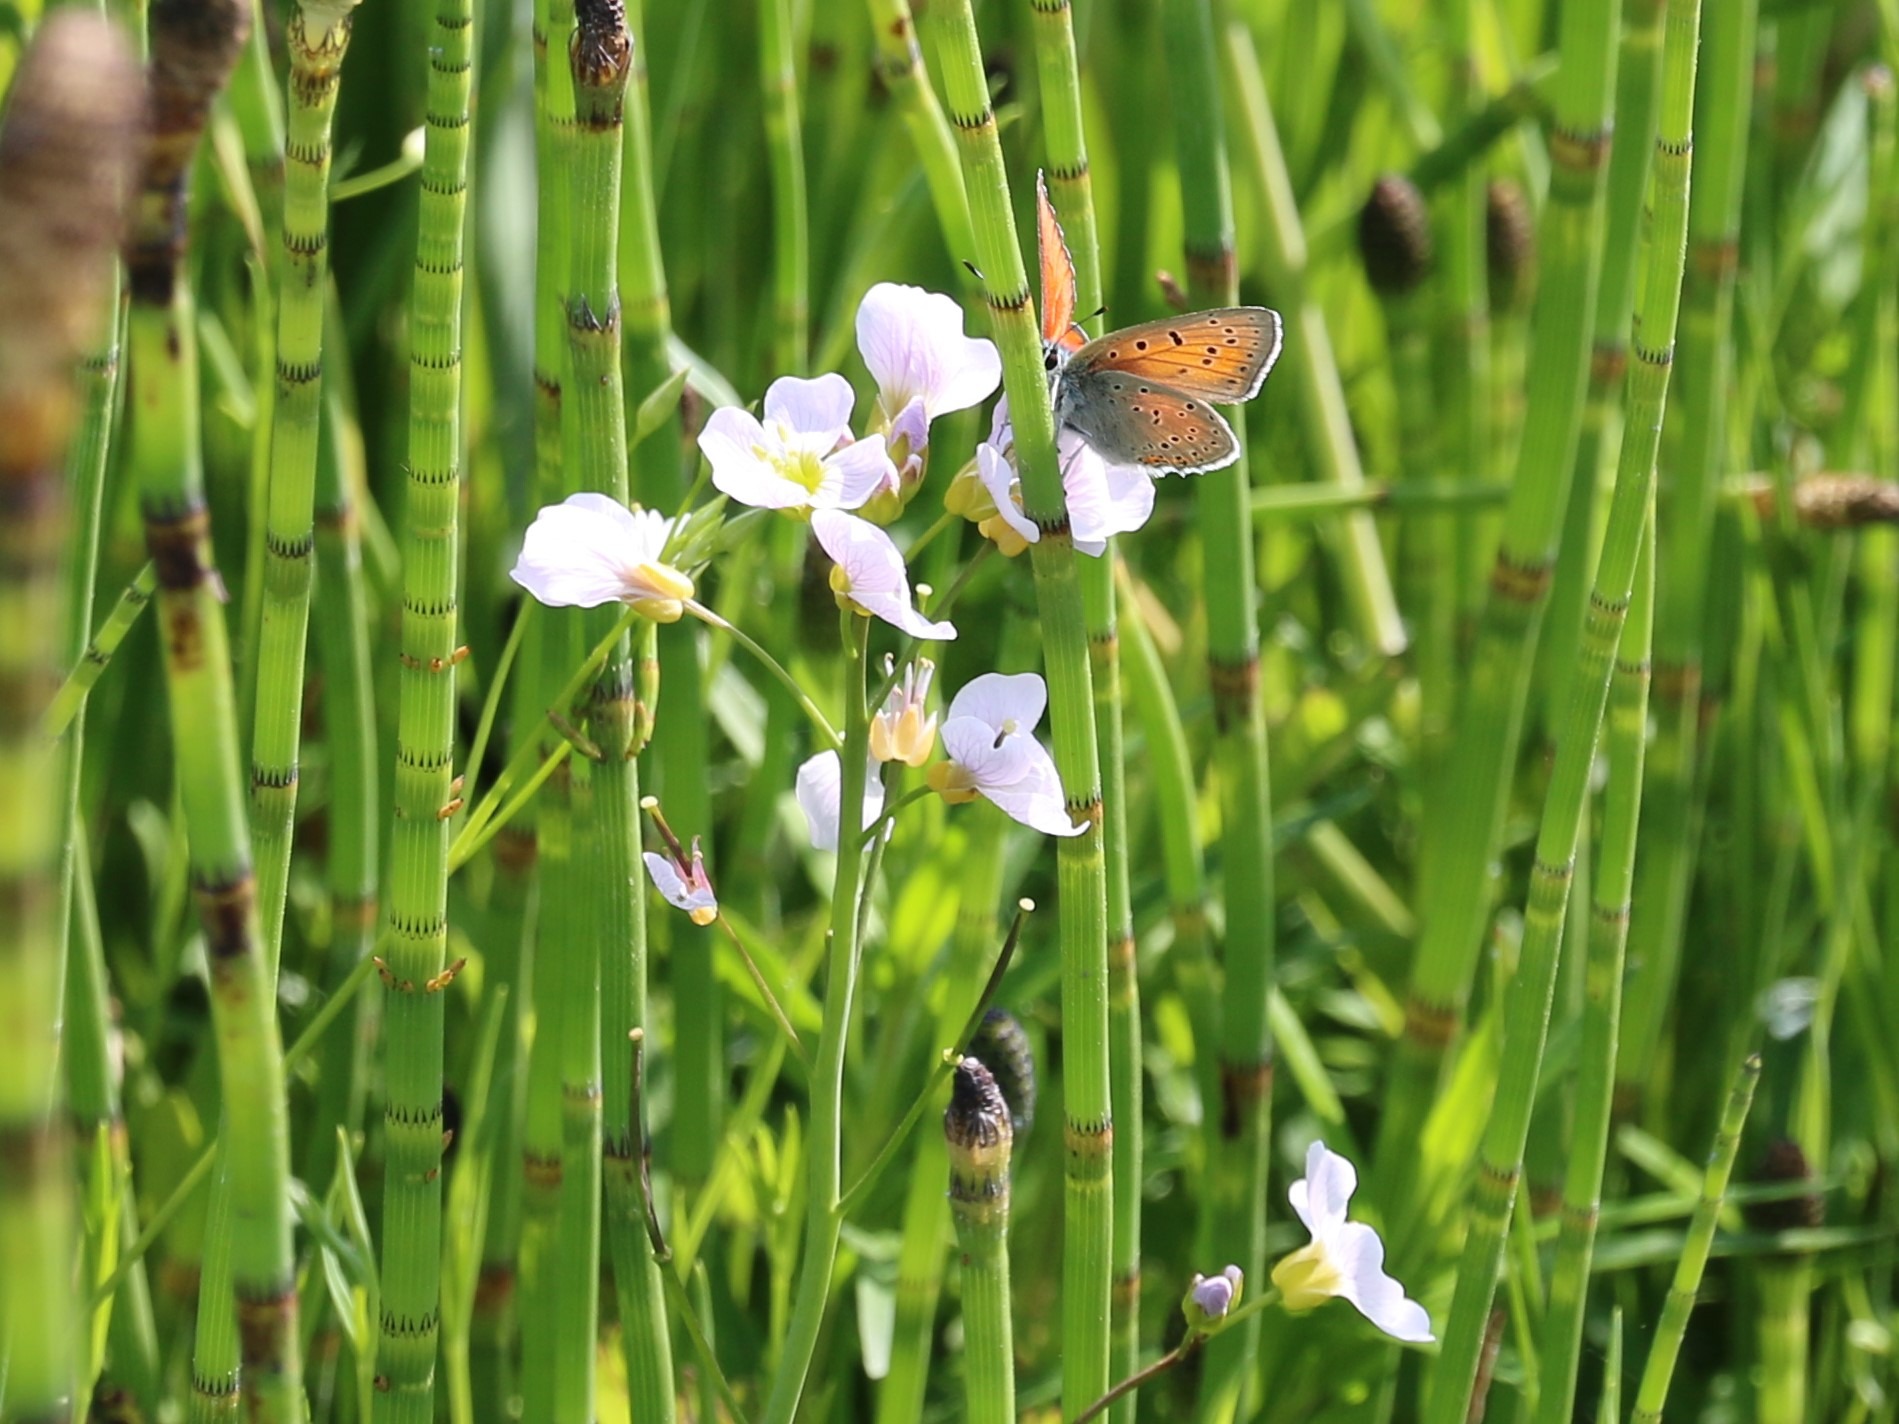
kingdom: Animalia
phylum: Arthropoda
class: Insecta
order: Lepidoptera
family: Lycaenidae
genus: Palaeochrysophanus
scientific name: Palaeochrysophanus hippothoe
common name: Violetrandet ildfugl
